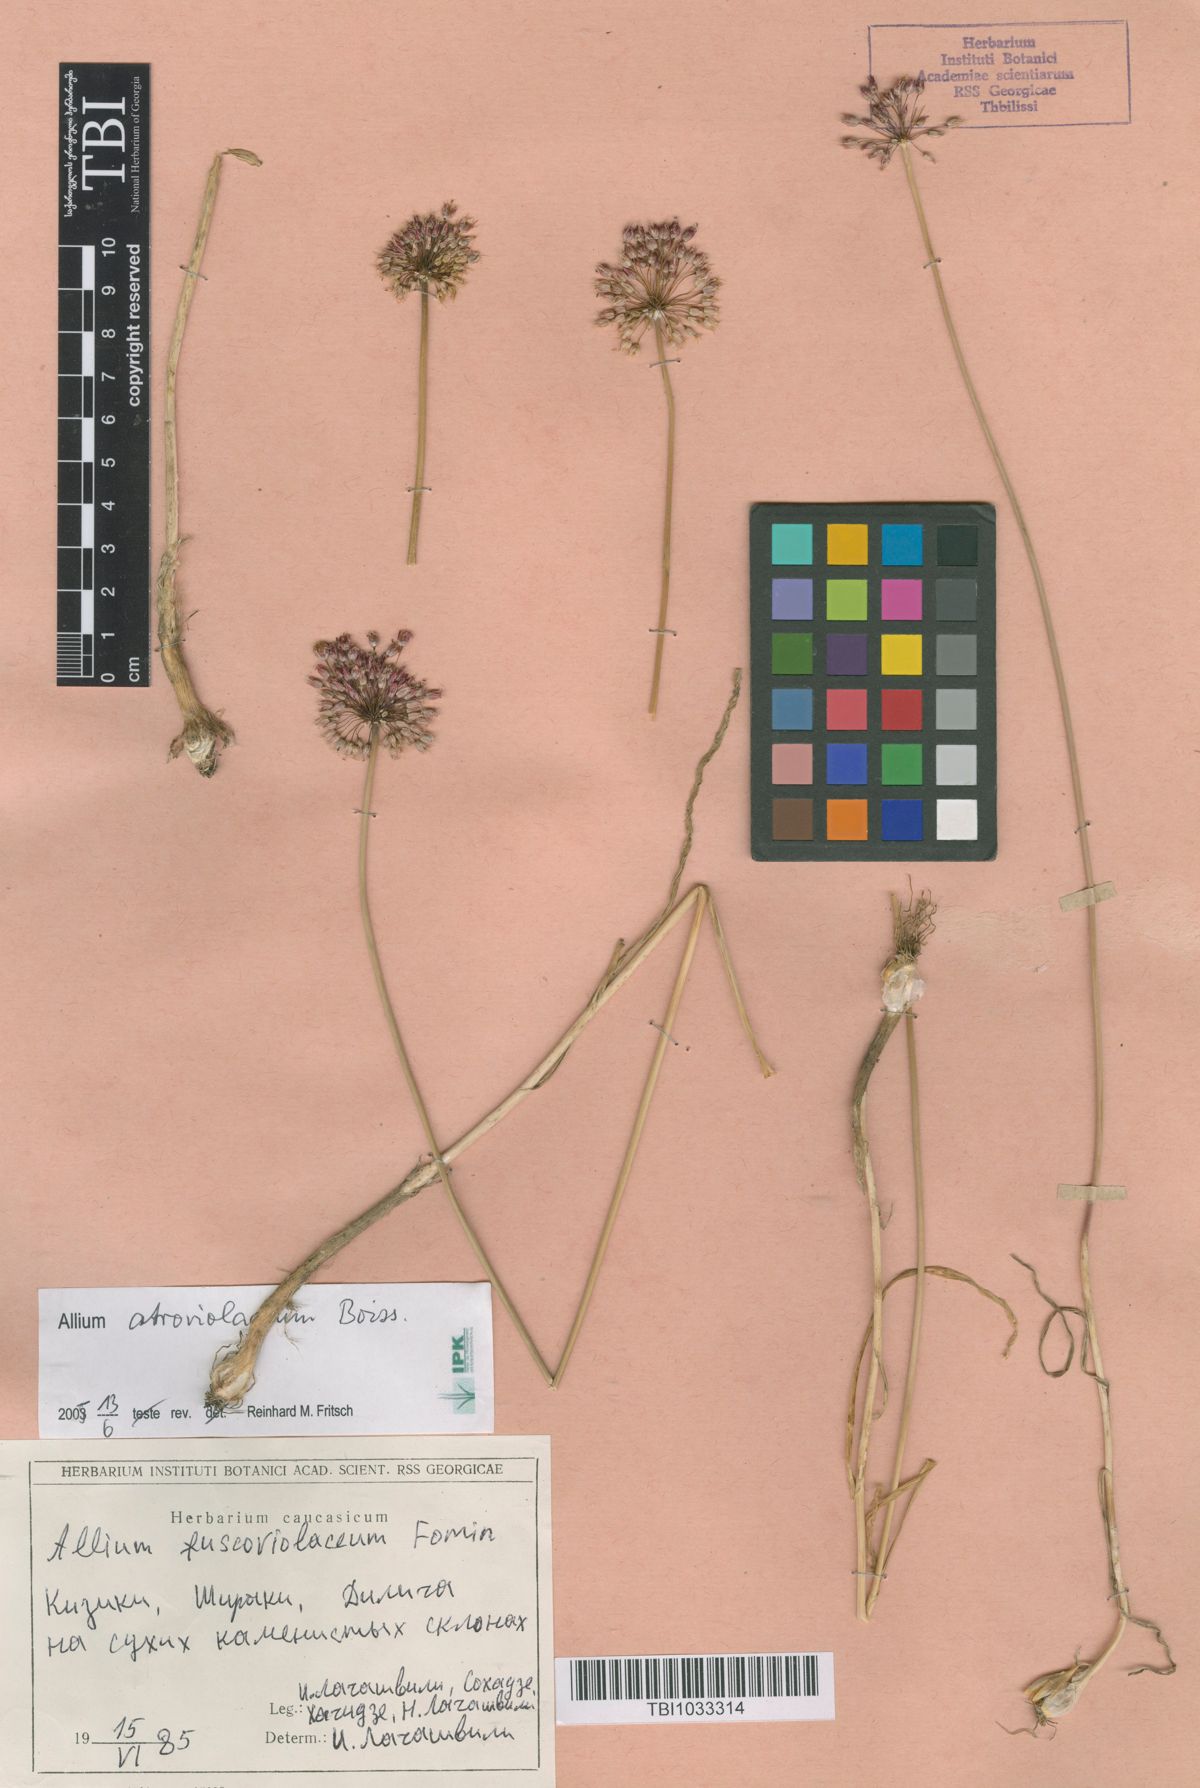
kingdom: Plantae
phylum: Tracheophyta
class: Liliopsida
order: Asparagales
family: Amaryllidaceae
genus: Allium
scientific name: Allium fuscoviolaceum
